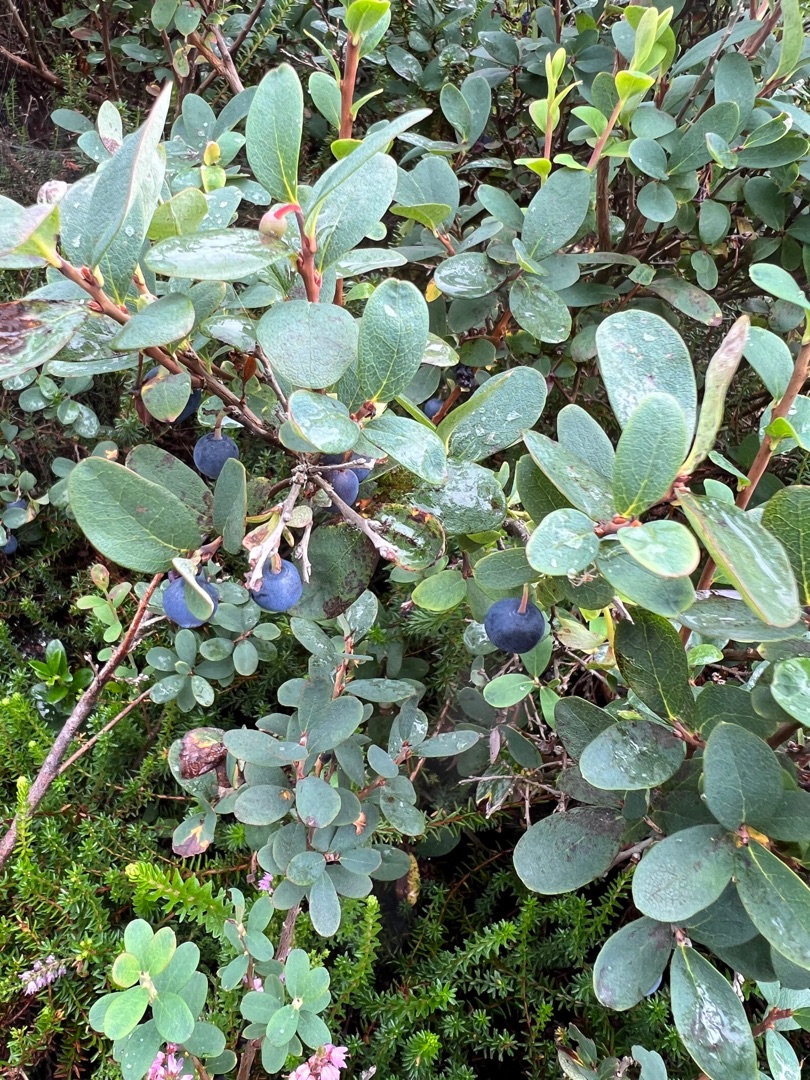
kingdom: Plantae
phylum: Tracheophyta
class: Magnoliopsida
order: Ericales
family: Ericaceae
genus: Vaccinium
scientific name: Vaccinium uliginosum
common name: Mose-bølle
